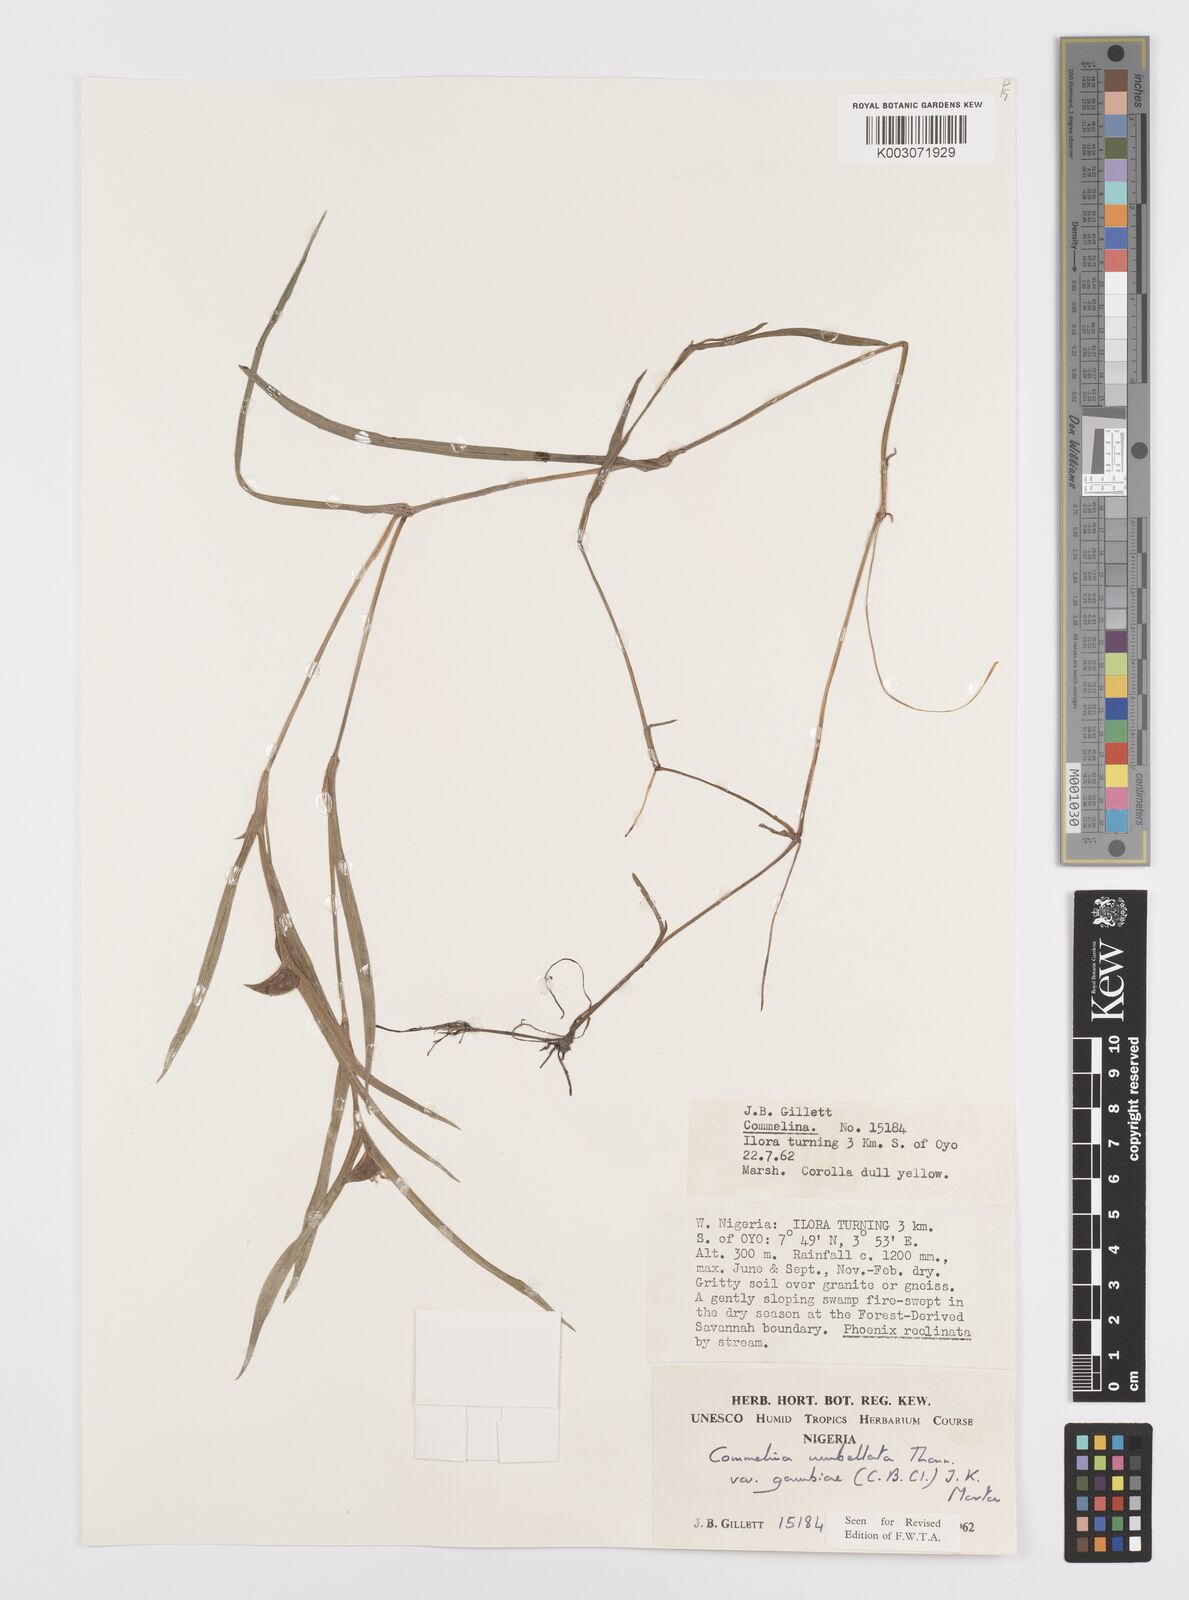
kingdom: Plantae
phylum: Tracheophyta
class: Liliopsida
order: Commelinales
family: Commelinaceae
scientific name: Commelinaceae
